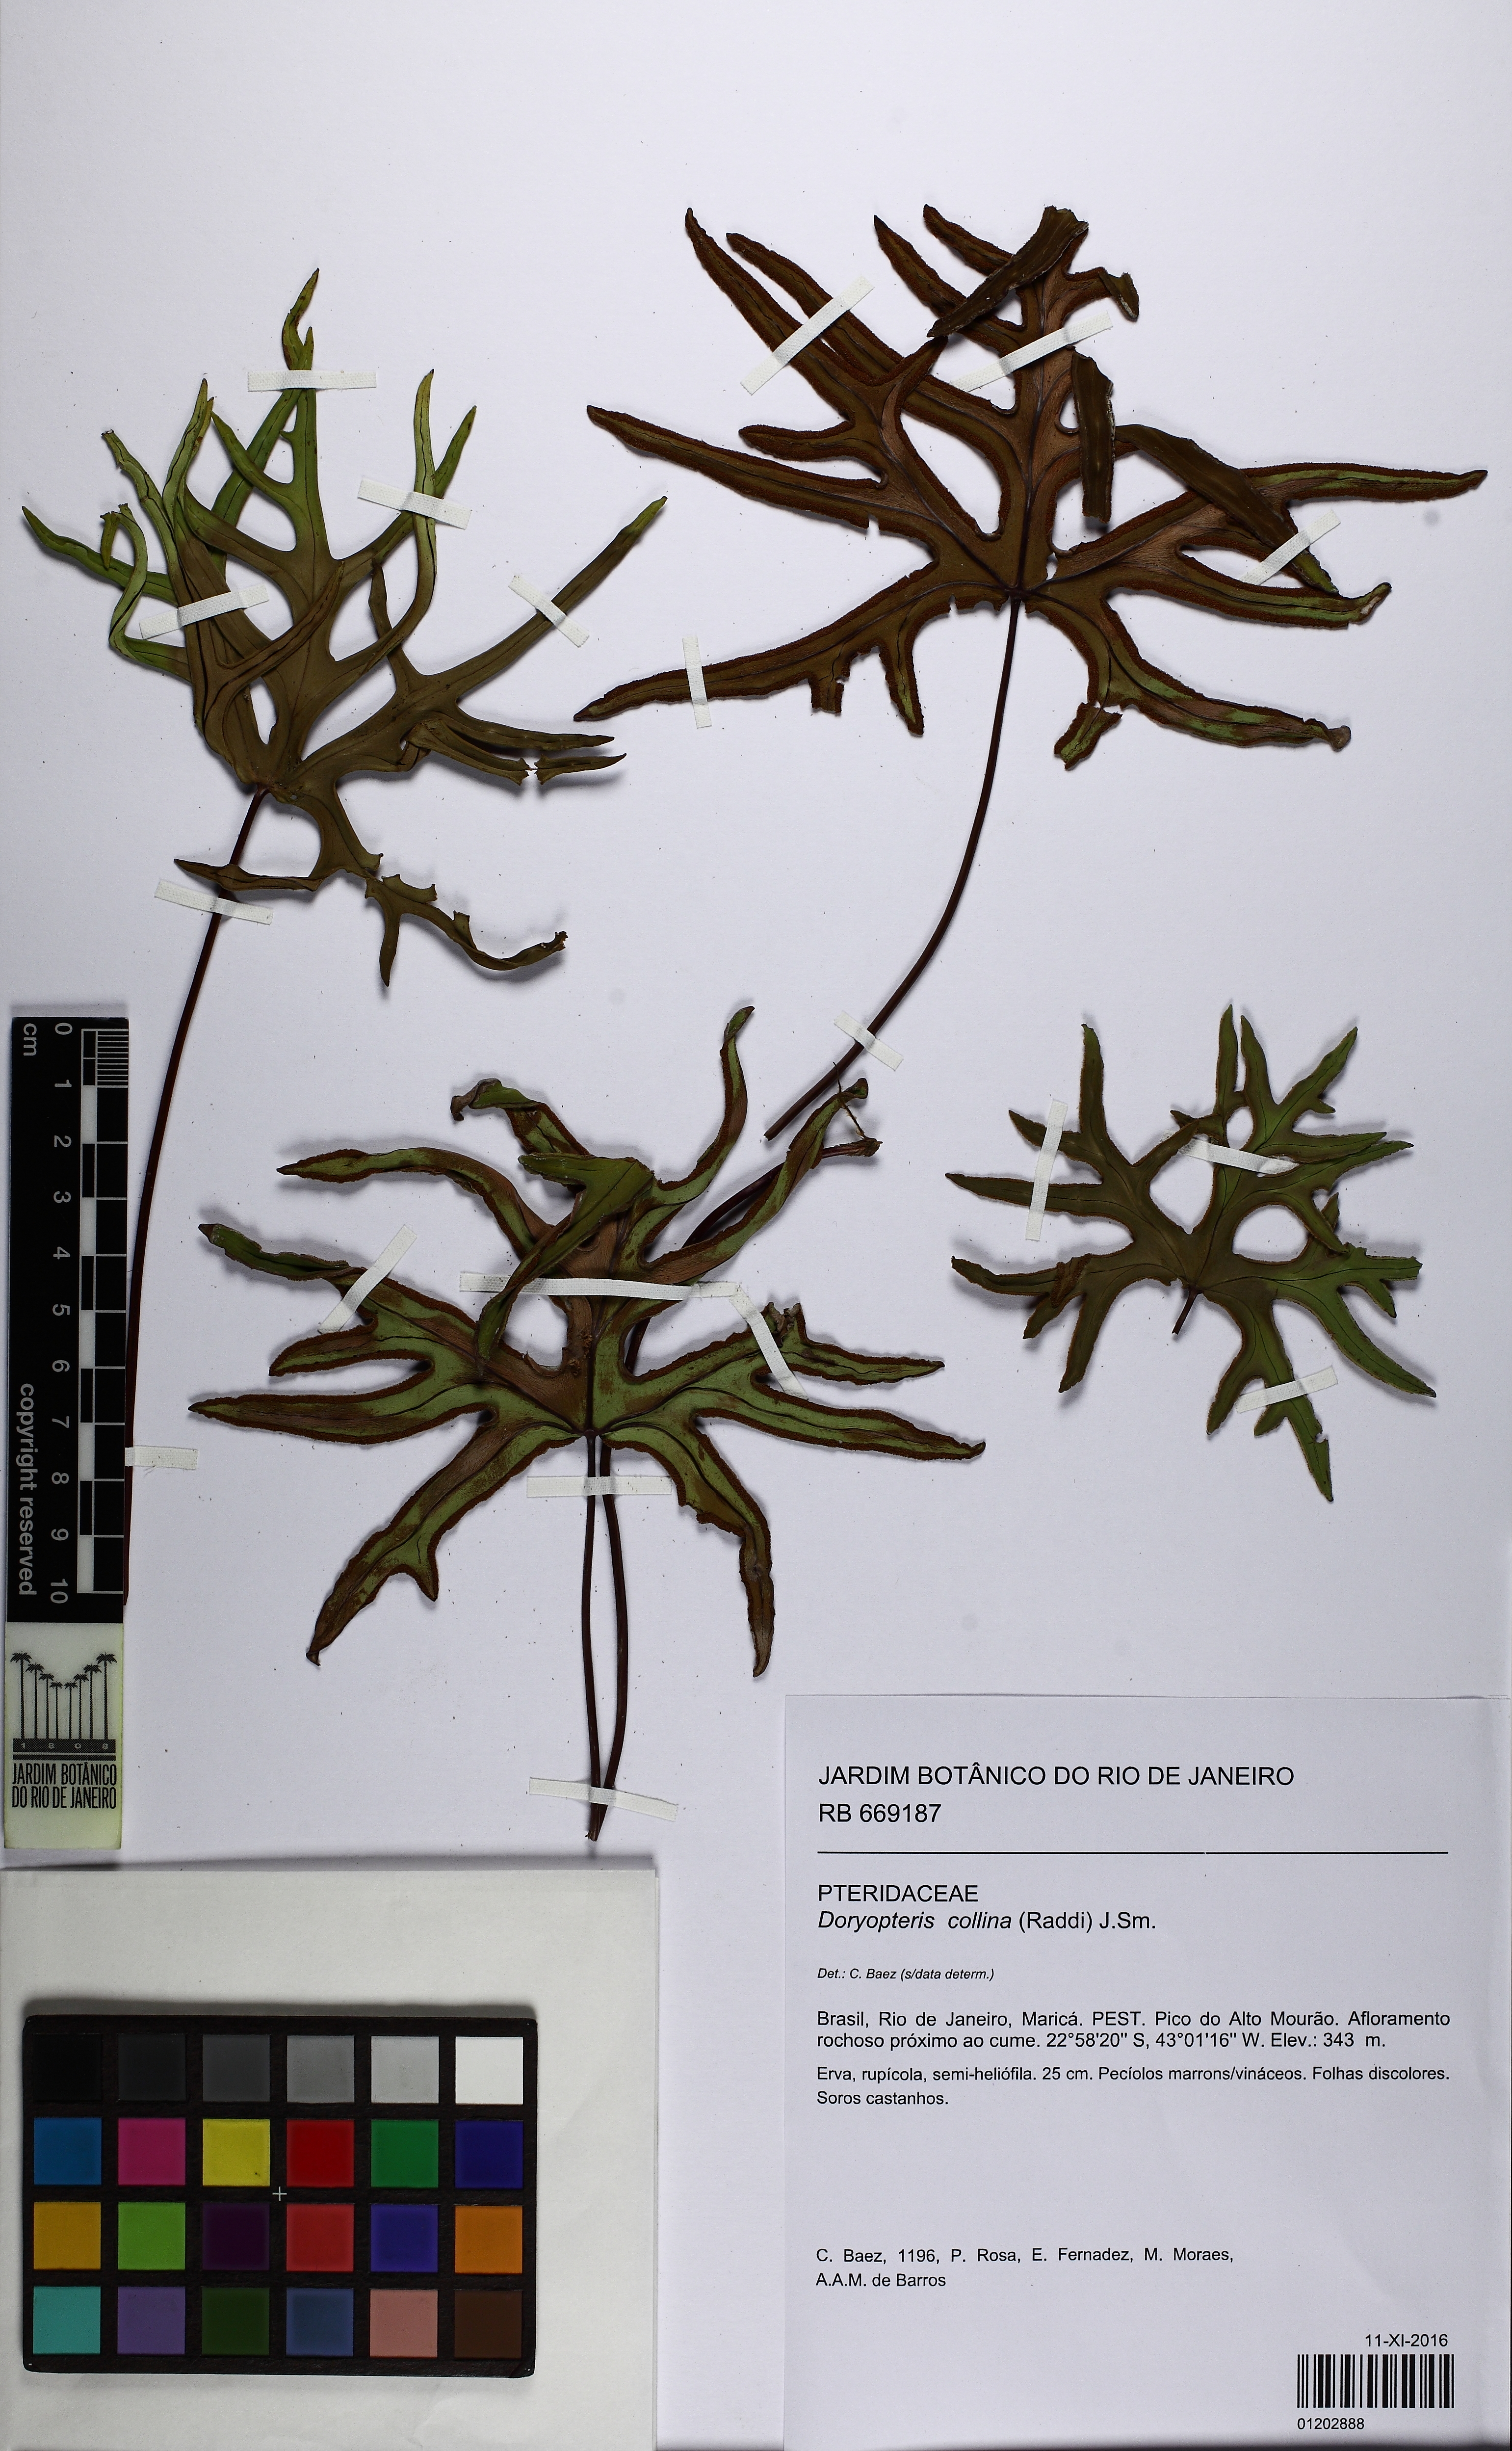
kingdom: Plantae
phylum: Tracheophyta
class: Polypodiopsida
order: Polypodiales
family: Pteridaceae
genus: Doryopteris
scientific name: Doryopteris collina
